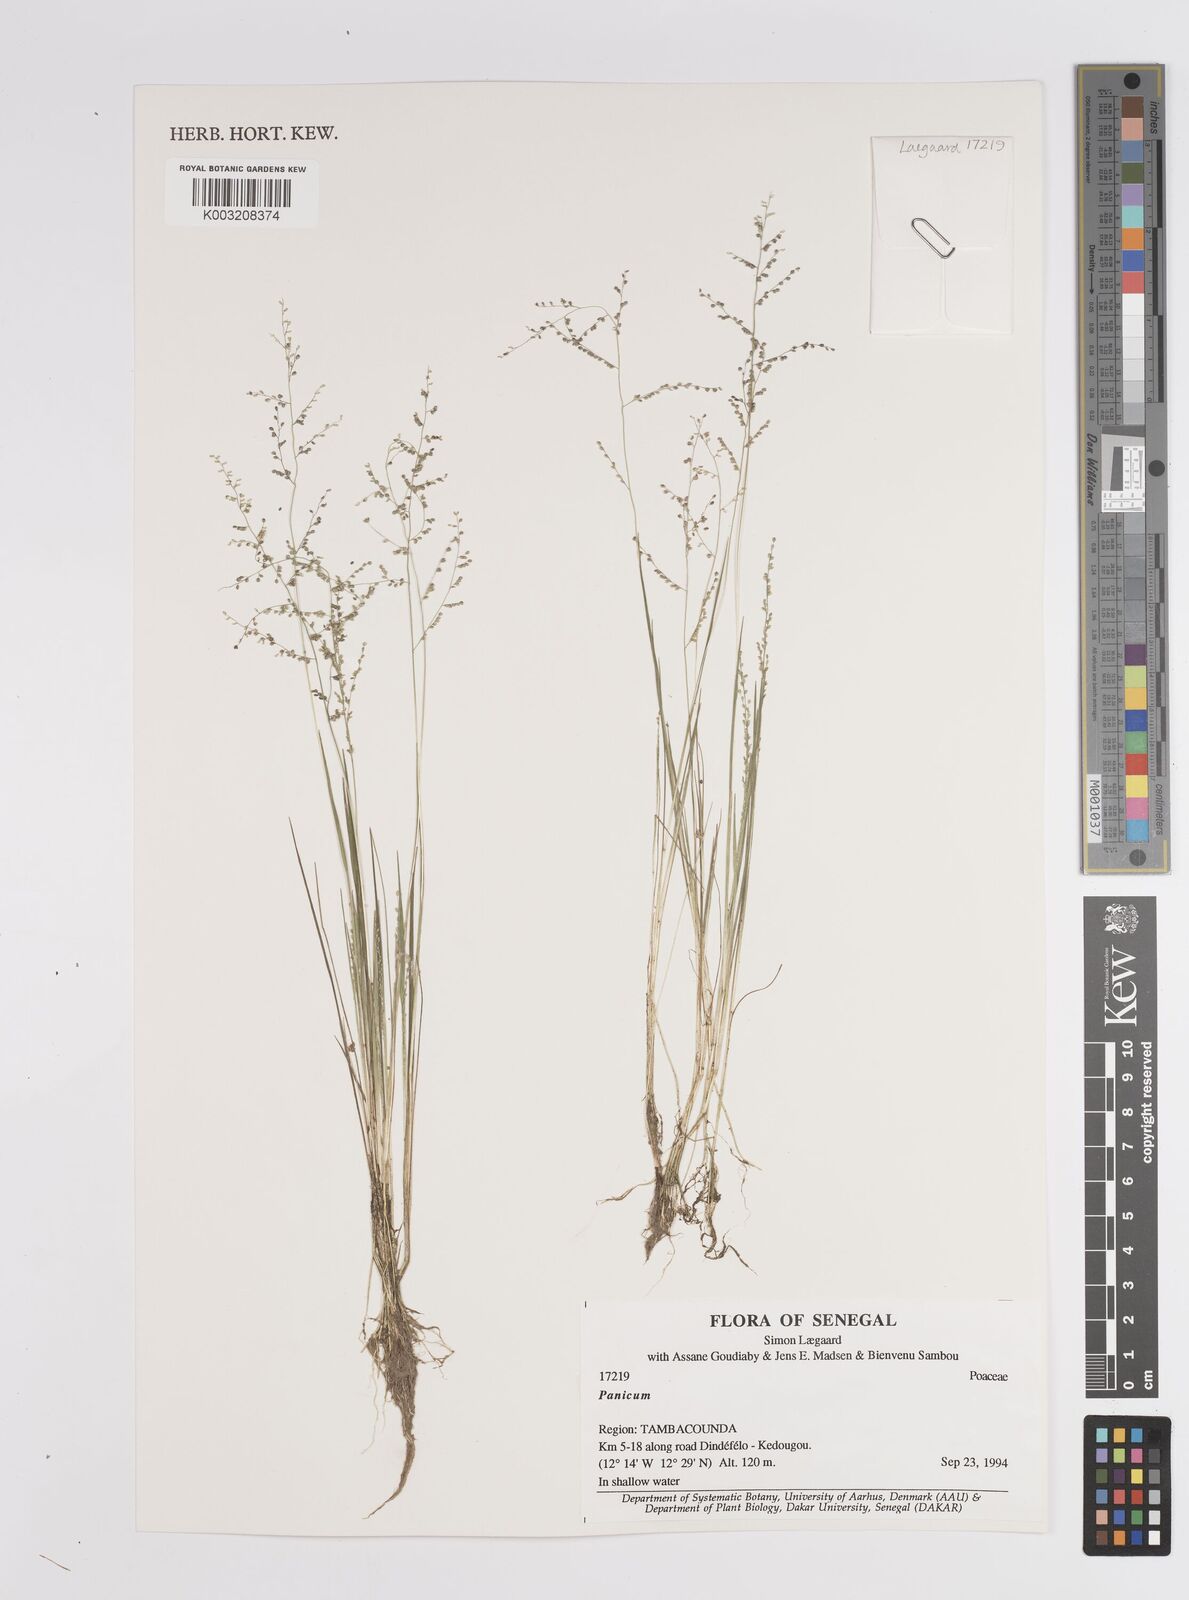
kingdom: Plantae
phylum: Tracheophyta
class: Liliopsida
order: Poales
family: Poaceae
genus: Panicum
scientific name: Panicum
